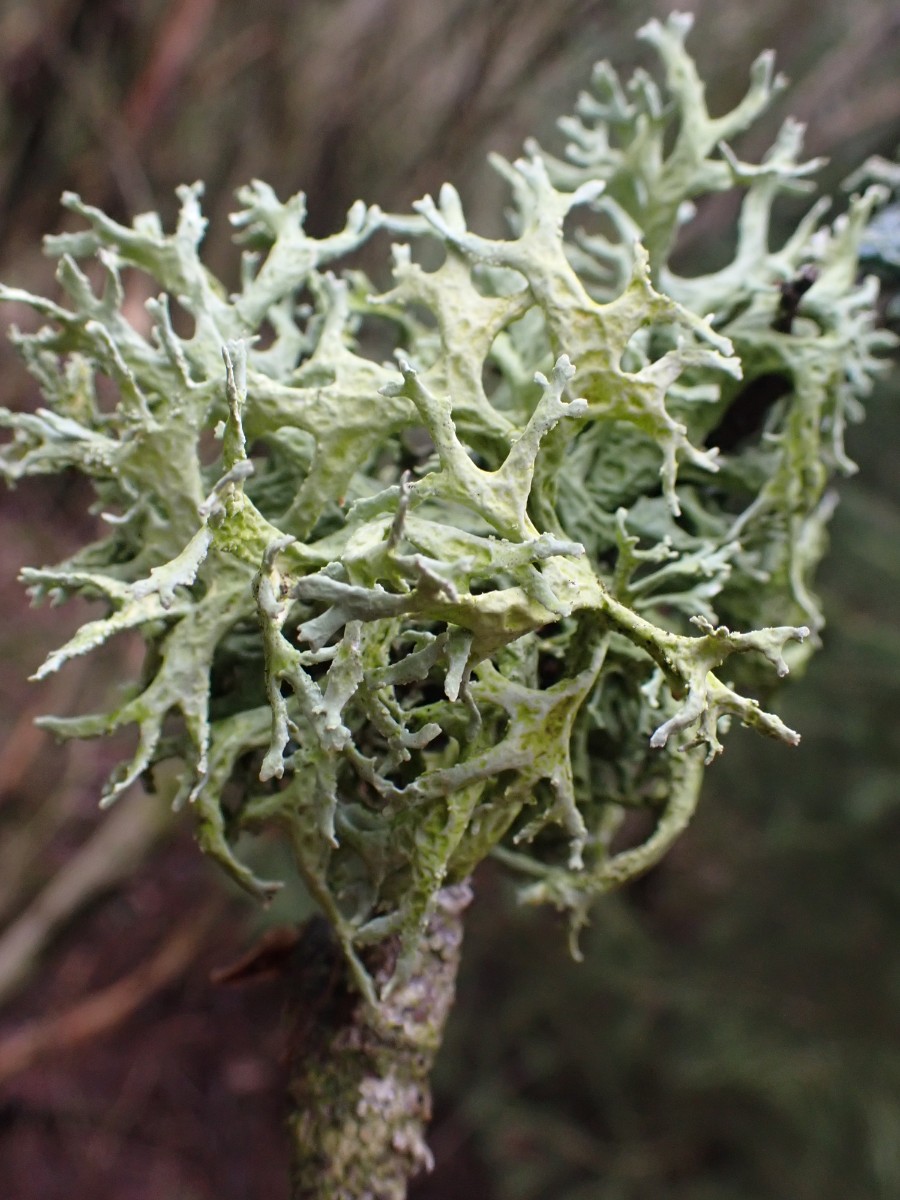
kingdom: Fungi
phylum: Ascomycota
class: Lecanoromycetes
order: Lecanorales
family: Parmeliaceae
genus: Evernia
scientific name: Evernia prunastri
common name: almindelig slåenlav
